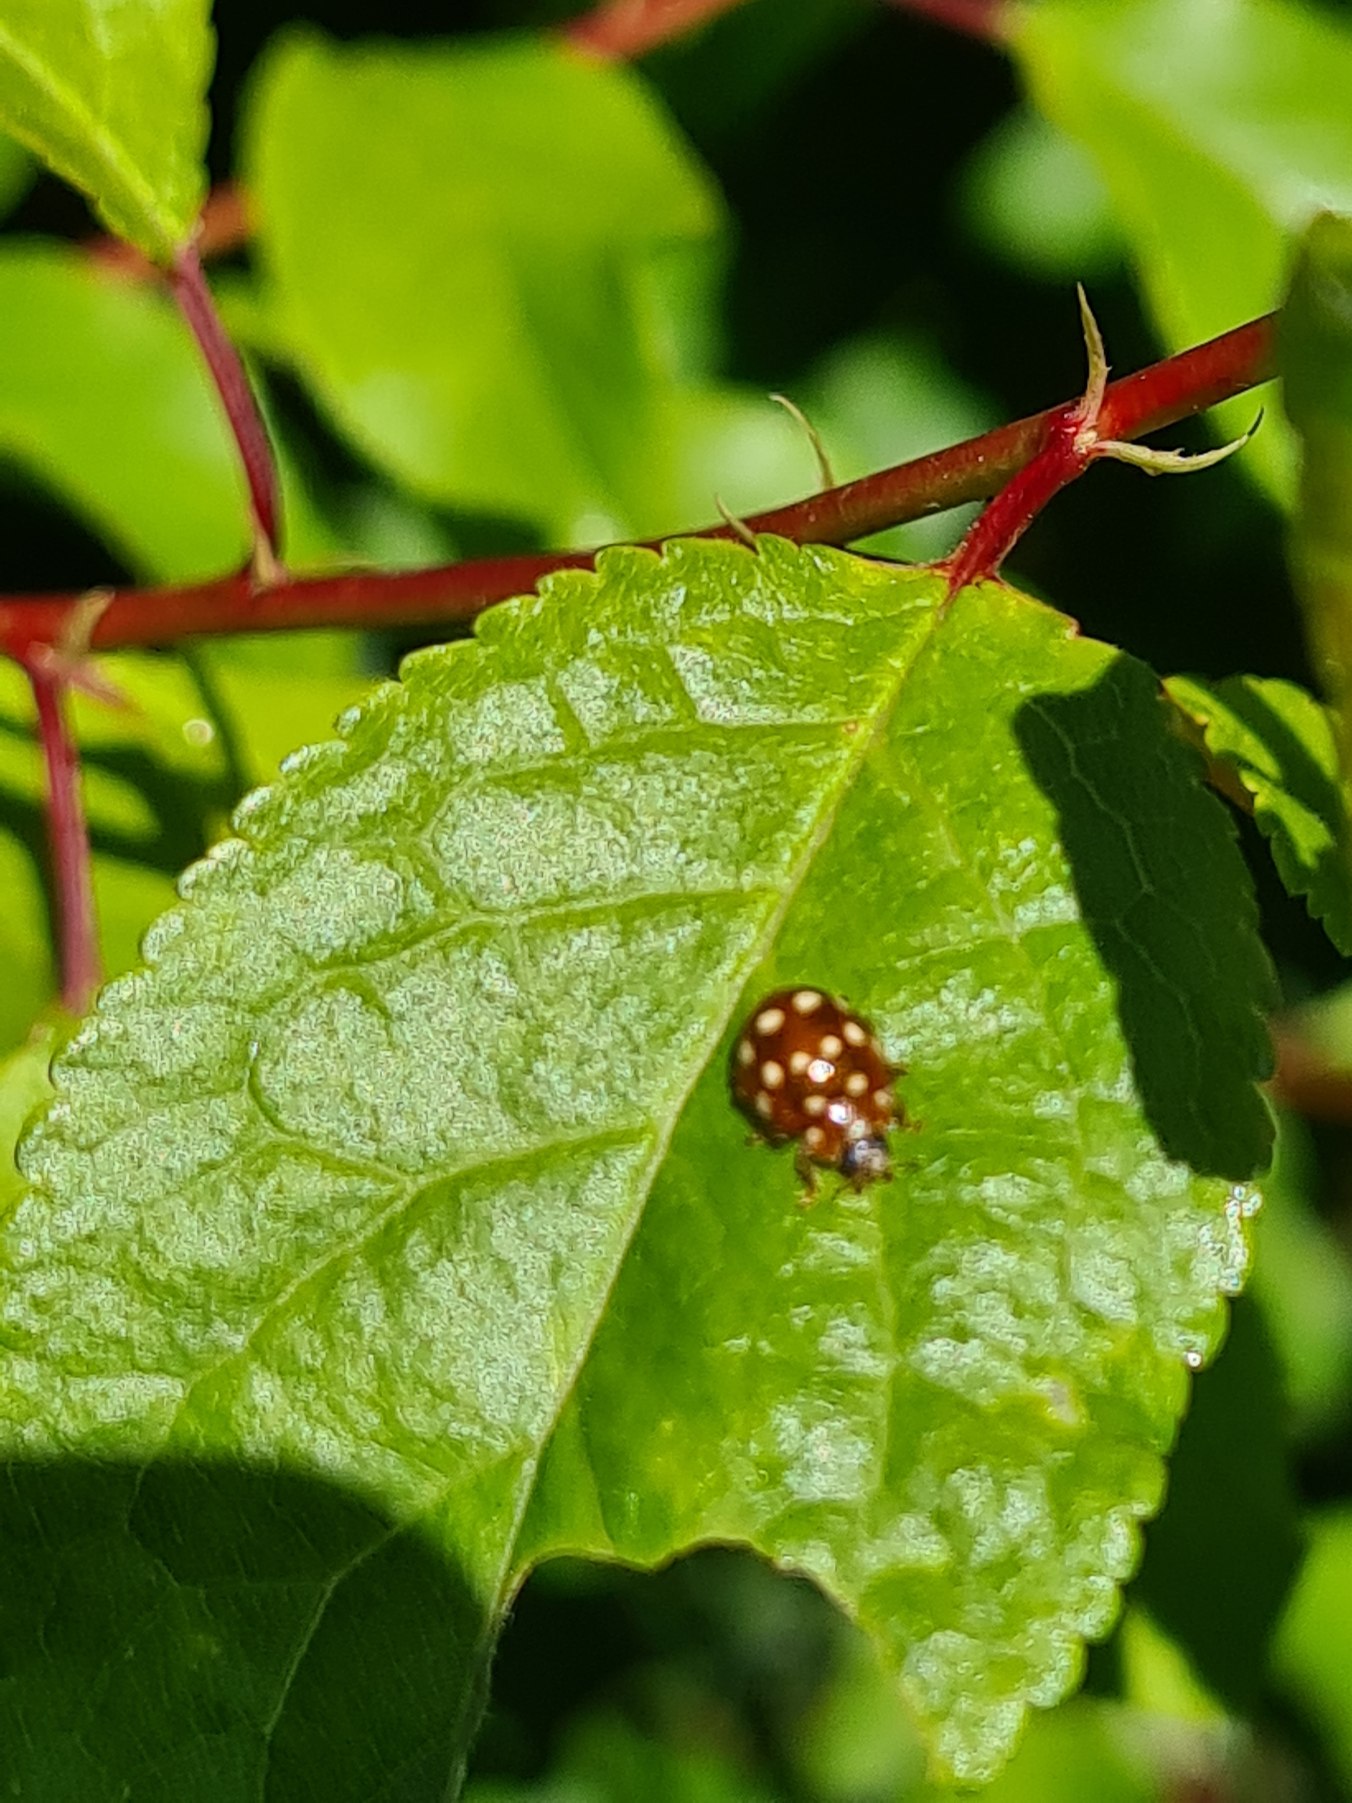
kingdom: Animalia
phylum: Arthropoda
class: Insecta
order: Coleoptera
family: Coccinellidae
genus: Calvia
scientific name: Calvia quatuordecimguttata
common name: Fjortenplettet mariehøne
